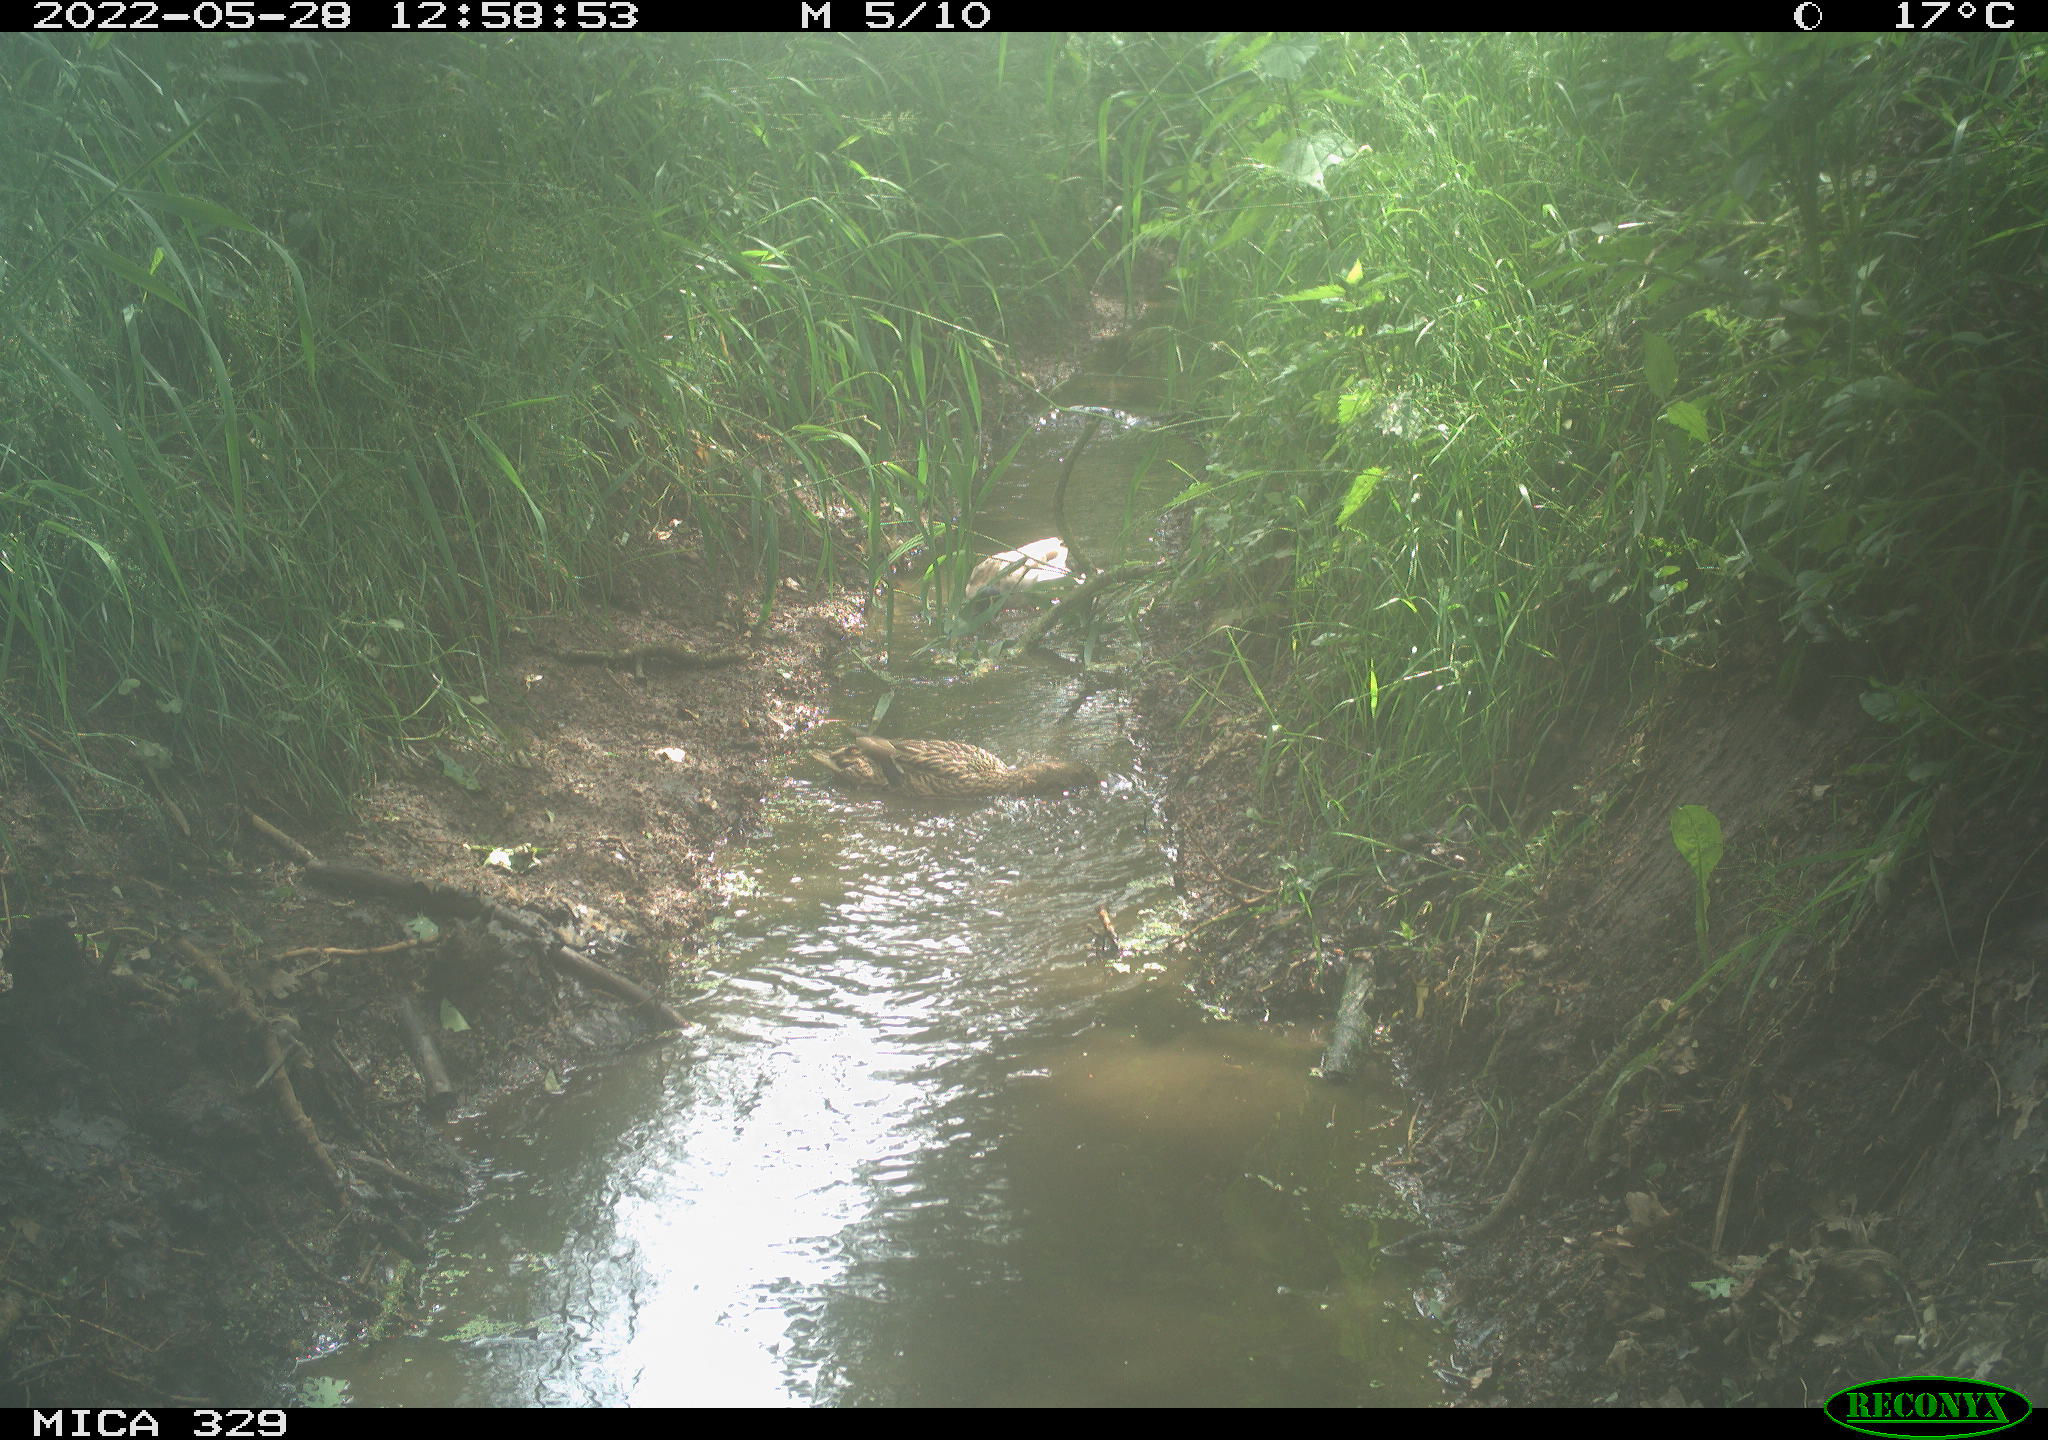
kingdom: Animalia
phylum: Chordata
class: Aves
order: Anseriformes
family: Anatidae
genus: Anas
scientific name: Anas platyrhynchos
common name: Mallard
